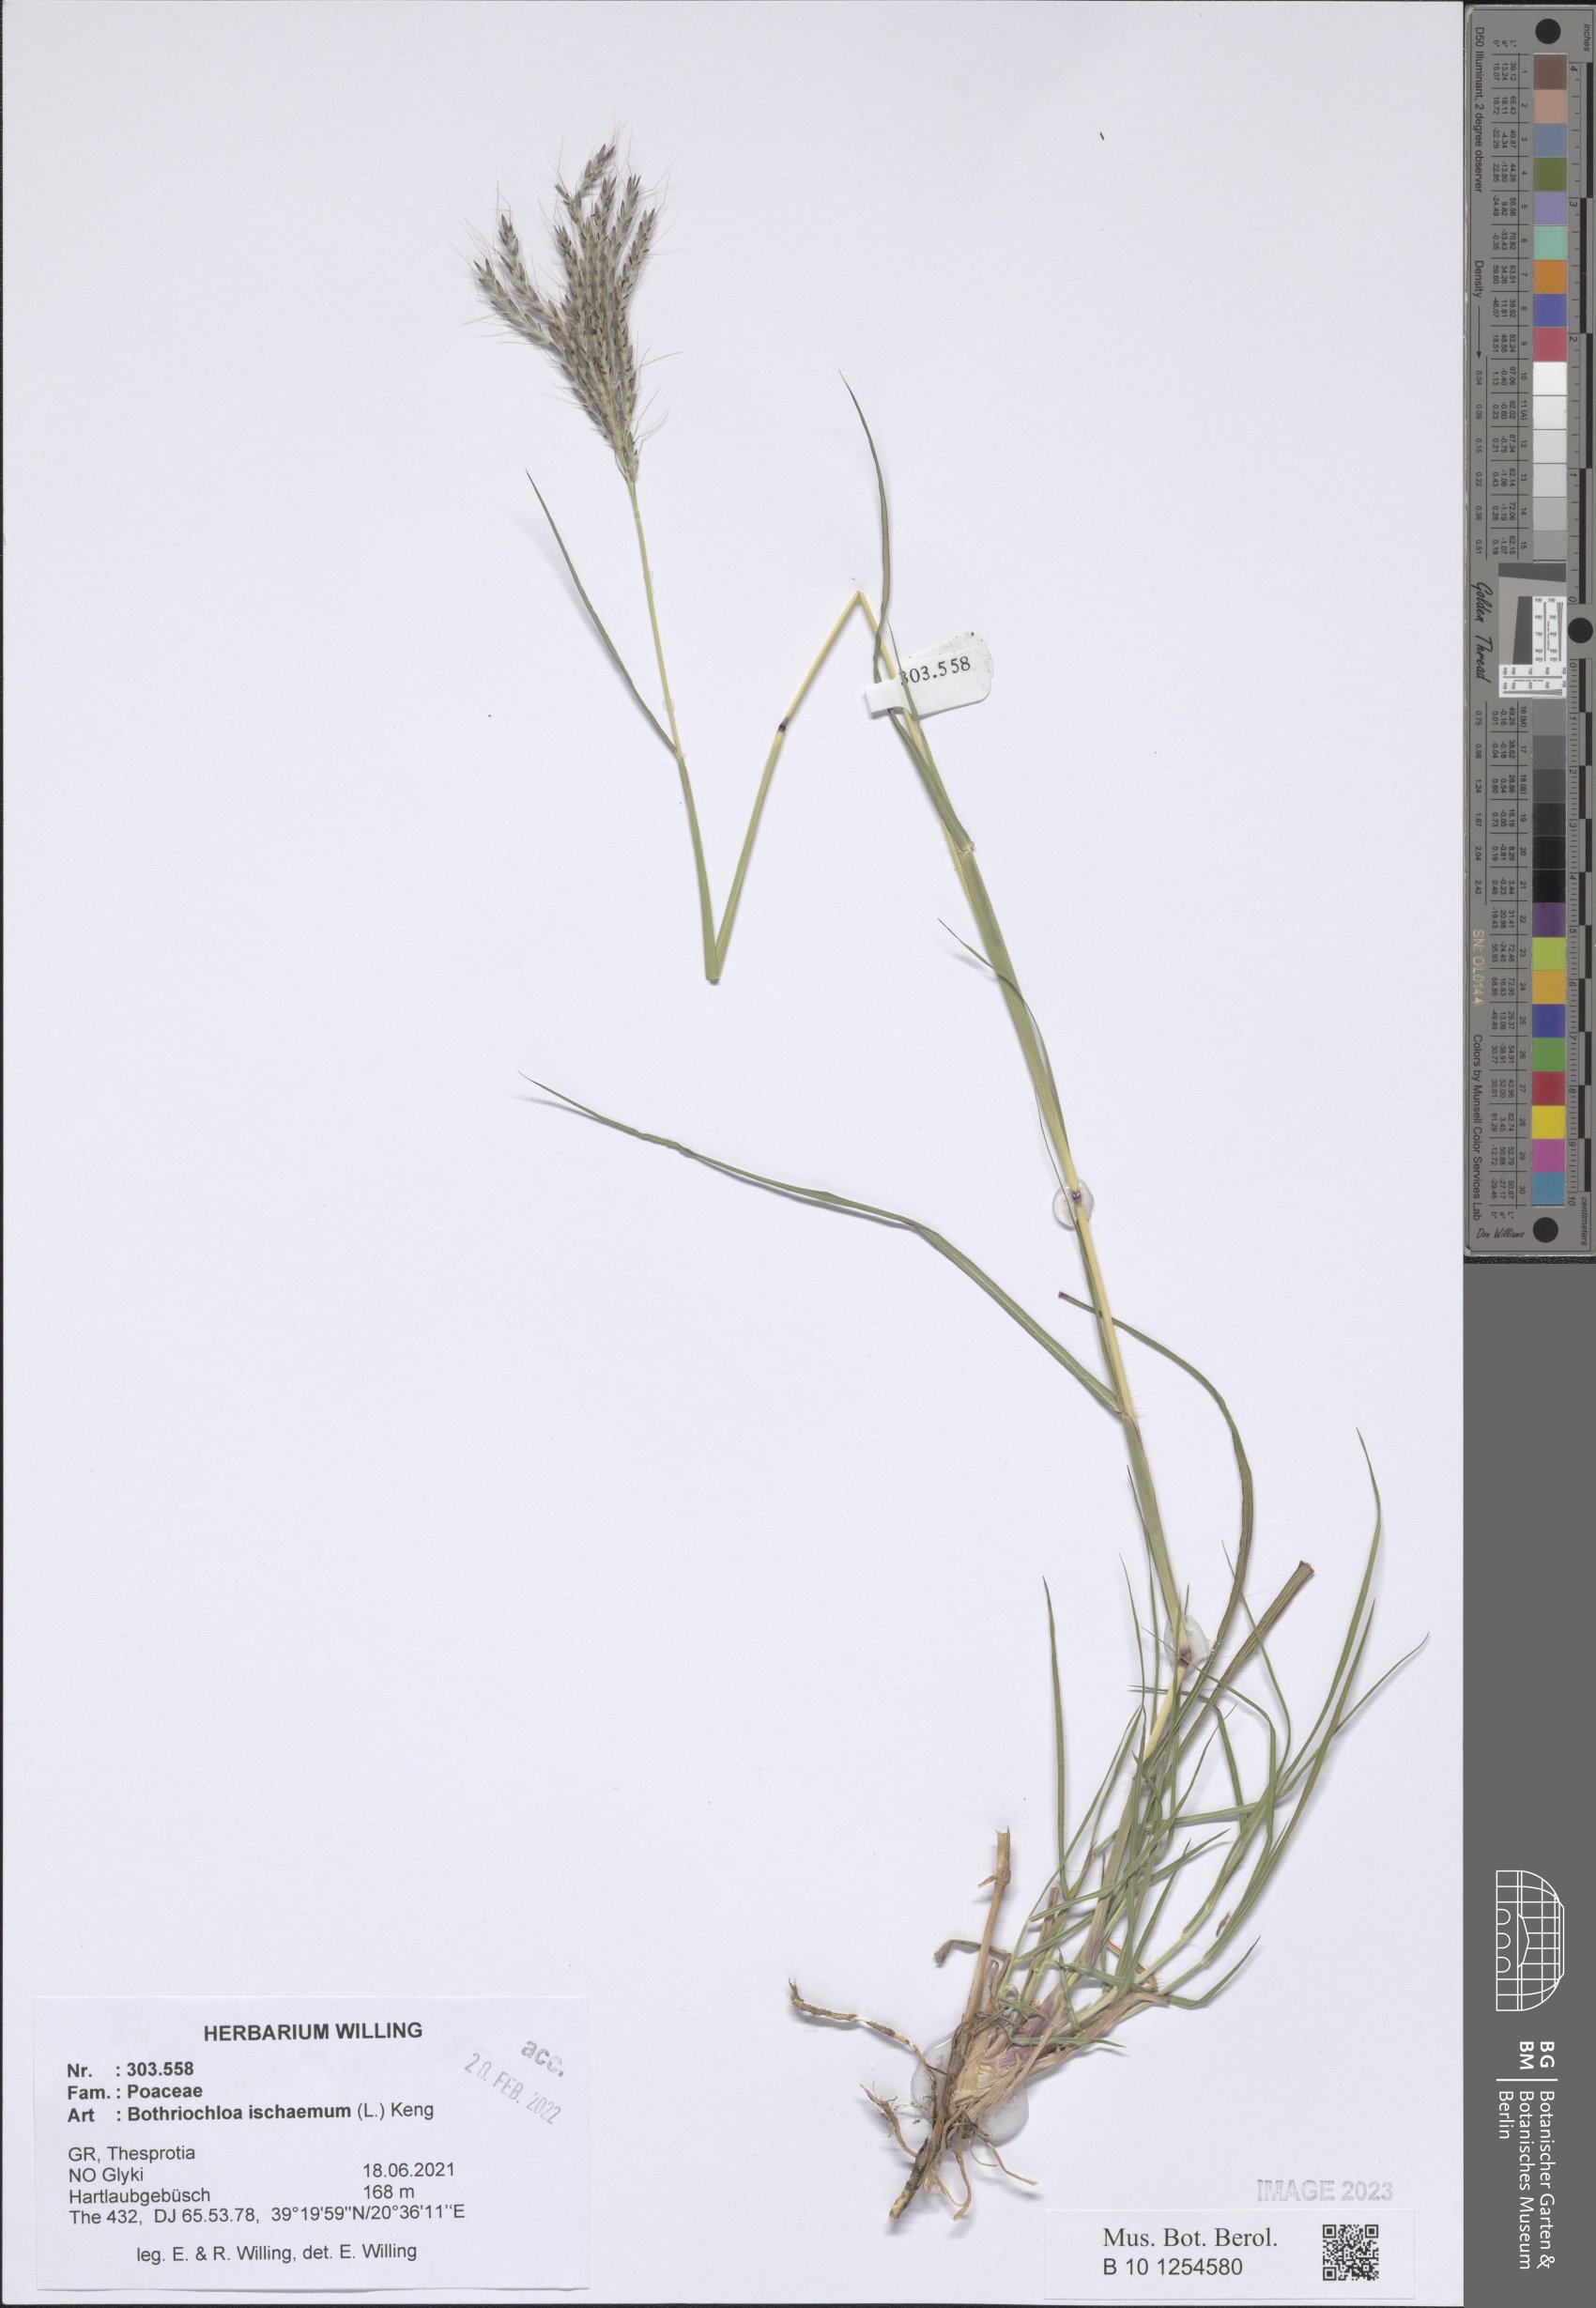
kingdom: Plantae
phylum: Tracheophyta
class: Liliopsida
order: Poales
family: Poaceae
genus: Bothriochloa
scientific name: Bothriochloa ischaemum
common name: Yellow bluestem
